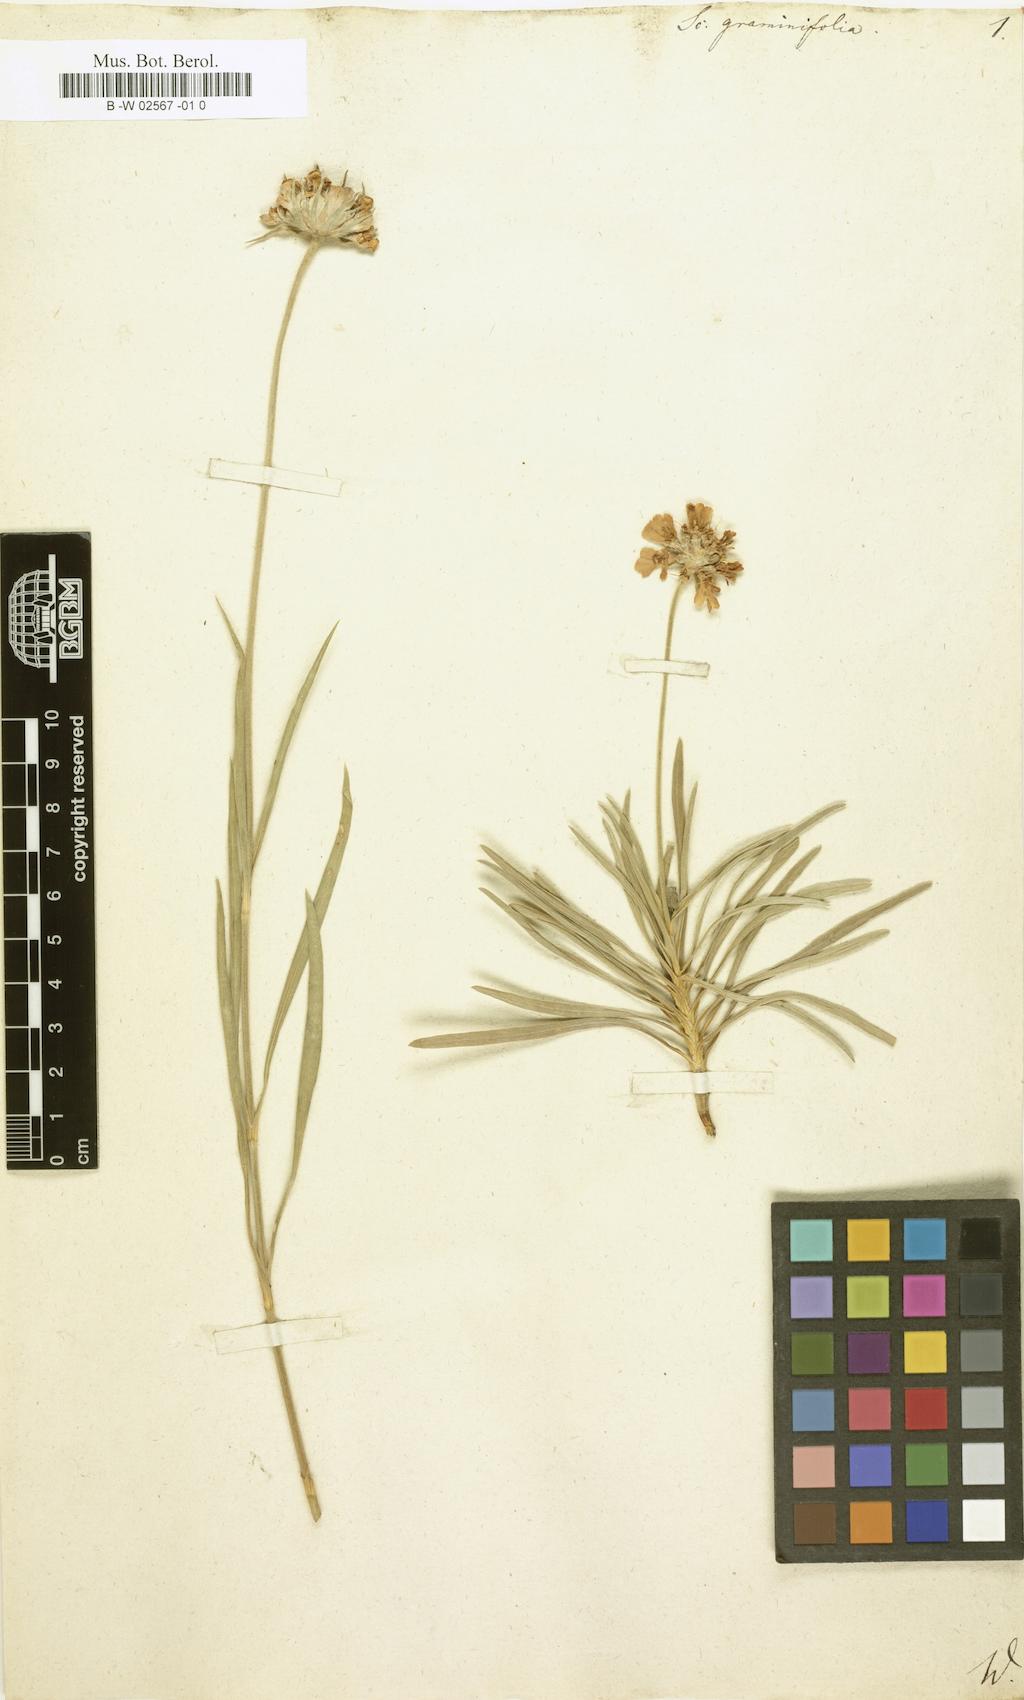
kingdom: Plantae
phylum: Tracheophyta
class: Magnoliopsida
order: Dipsacales
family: Caprifoliaceae
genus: Lomelosia
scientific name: Lomelosia graminifolia
